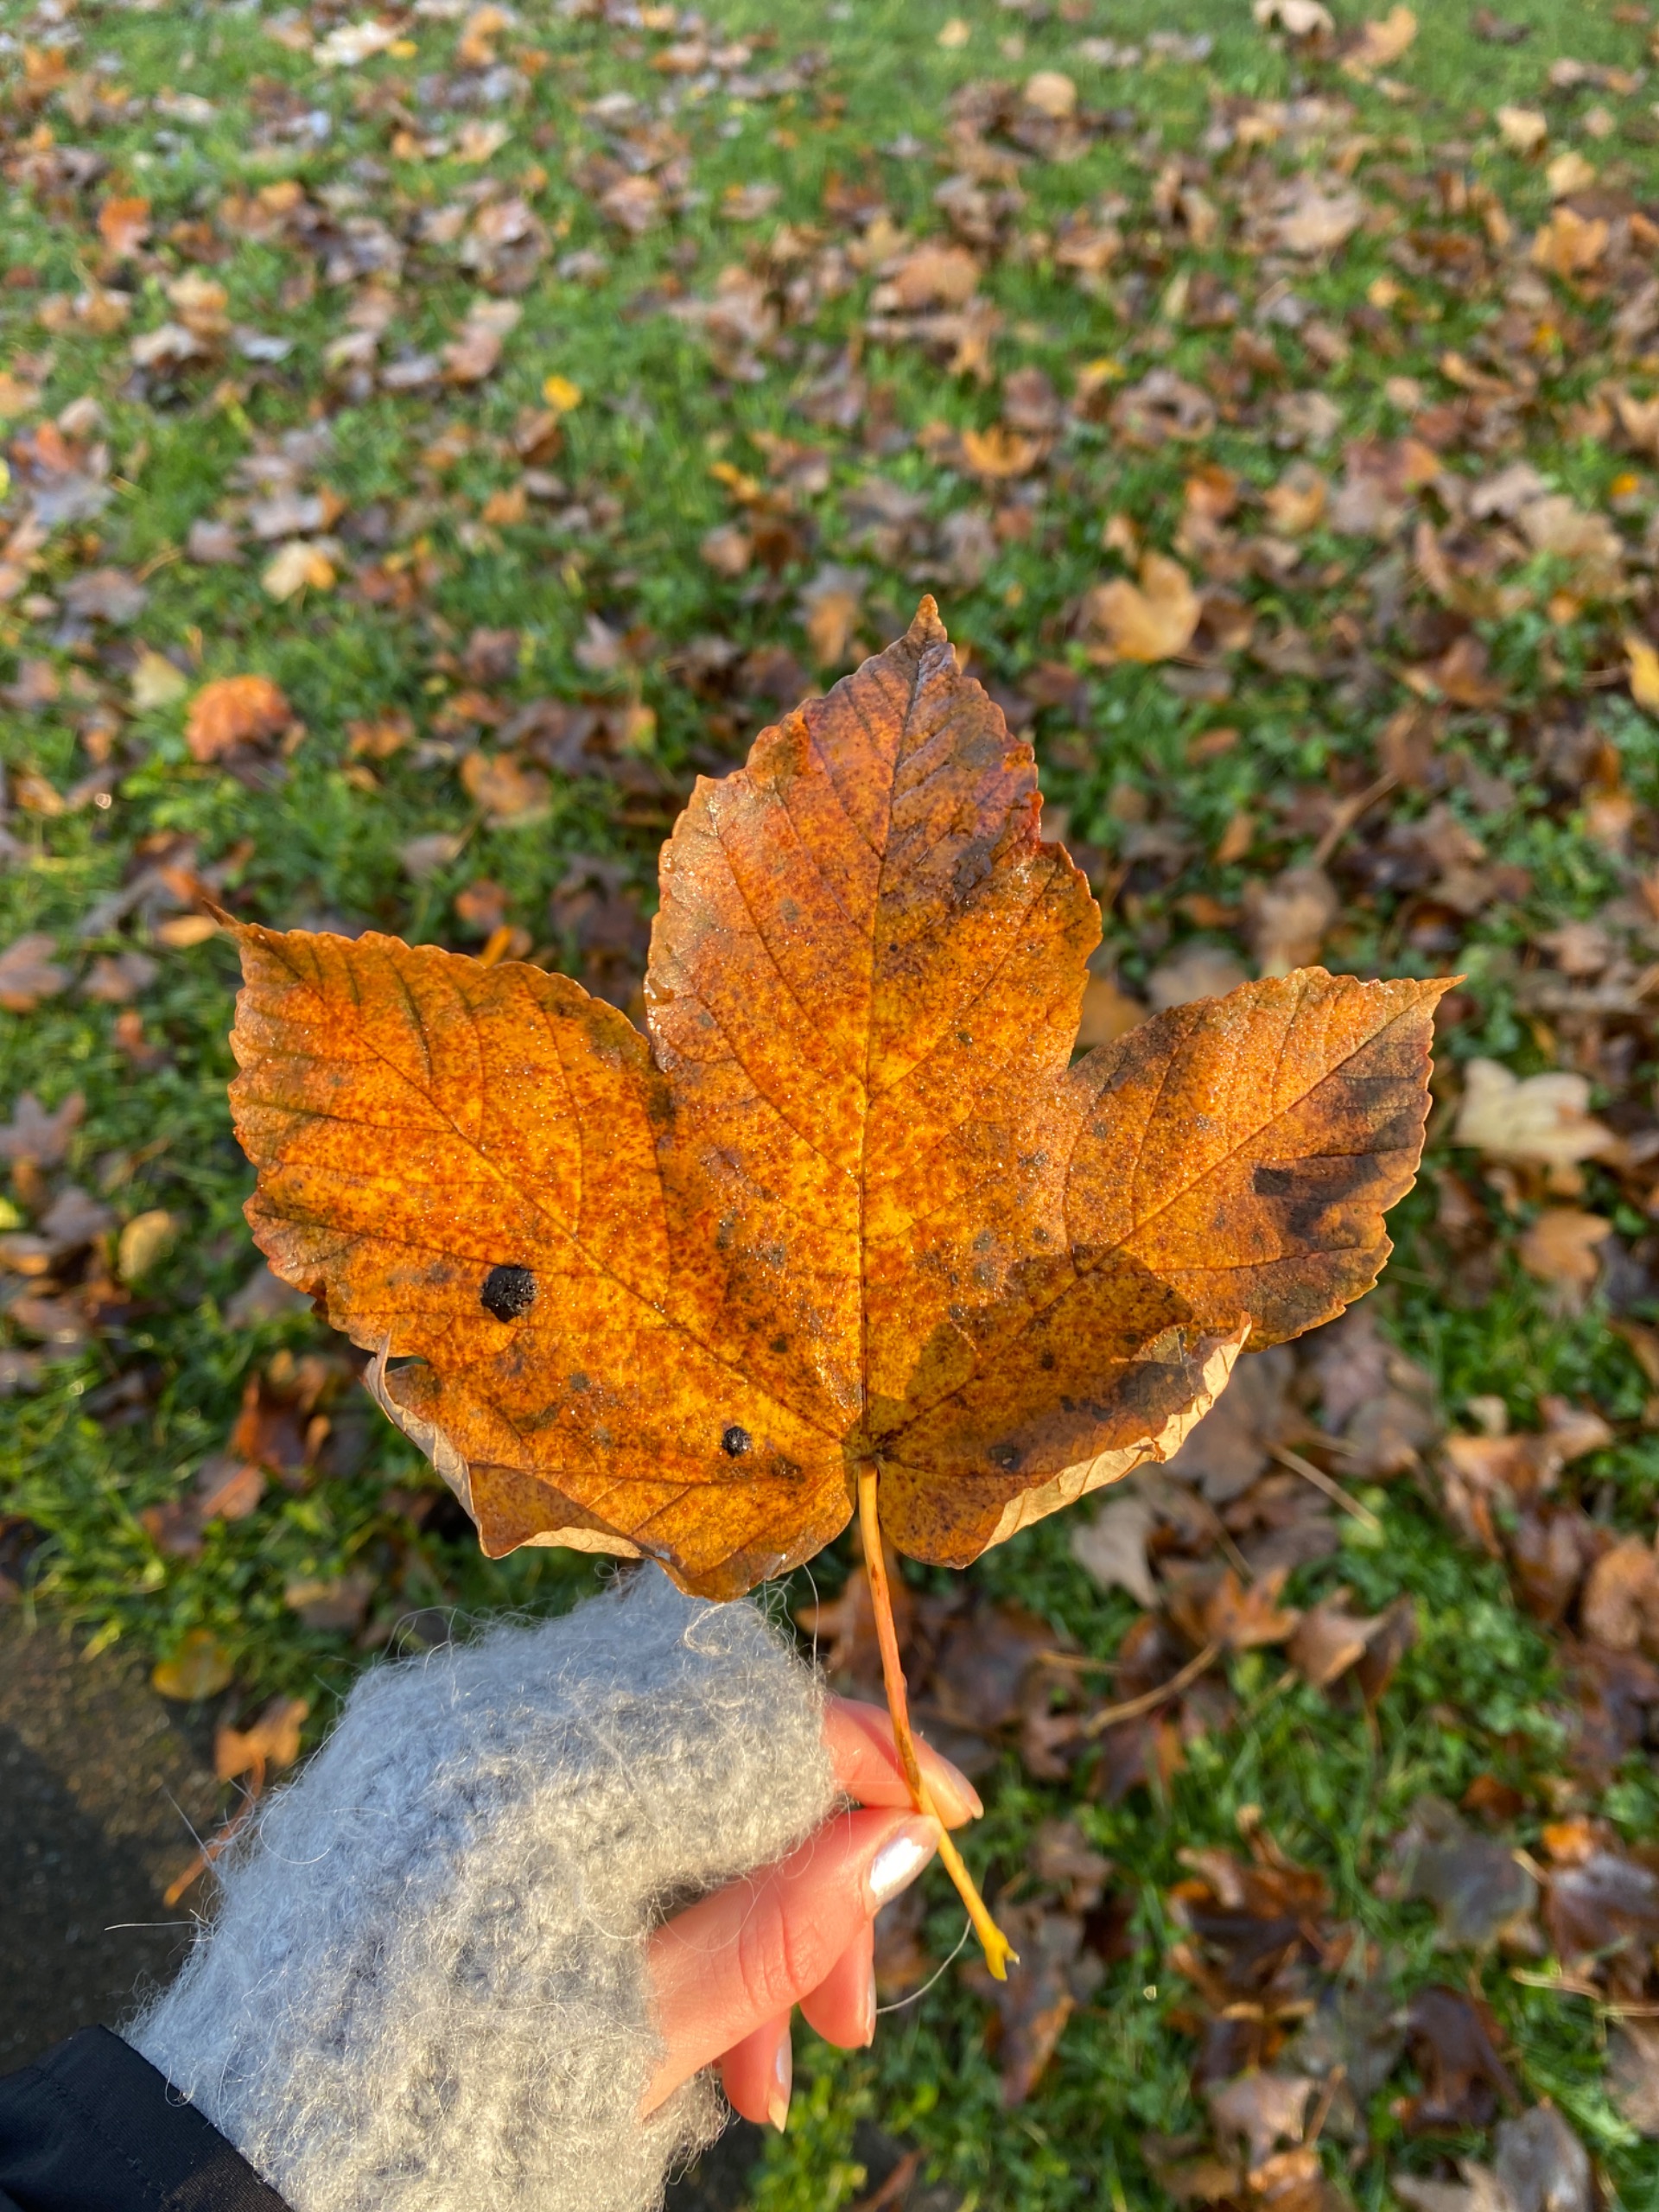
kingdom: Plantae
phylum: Tracheophyta
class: Magnoliopsida
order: Sapindales
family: Sapindaceae
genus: Acer
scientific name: Acer pseudoplatanus
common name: Ahorn
